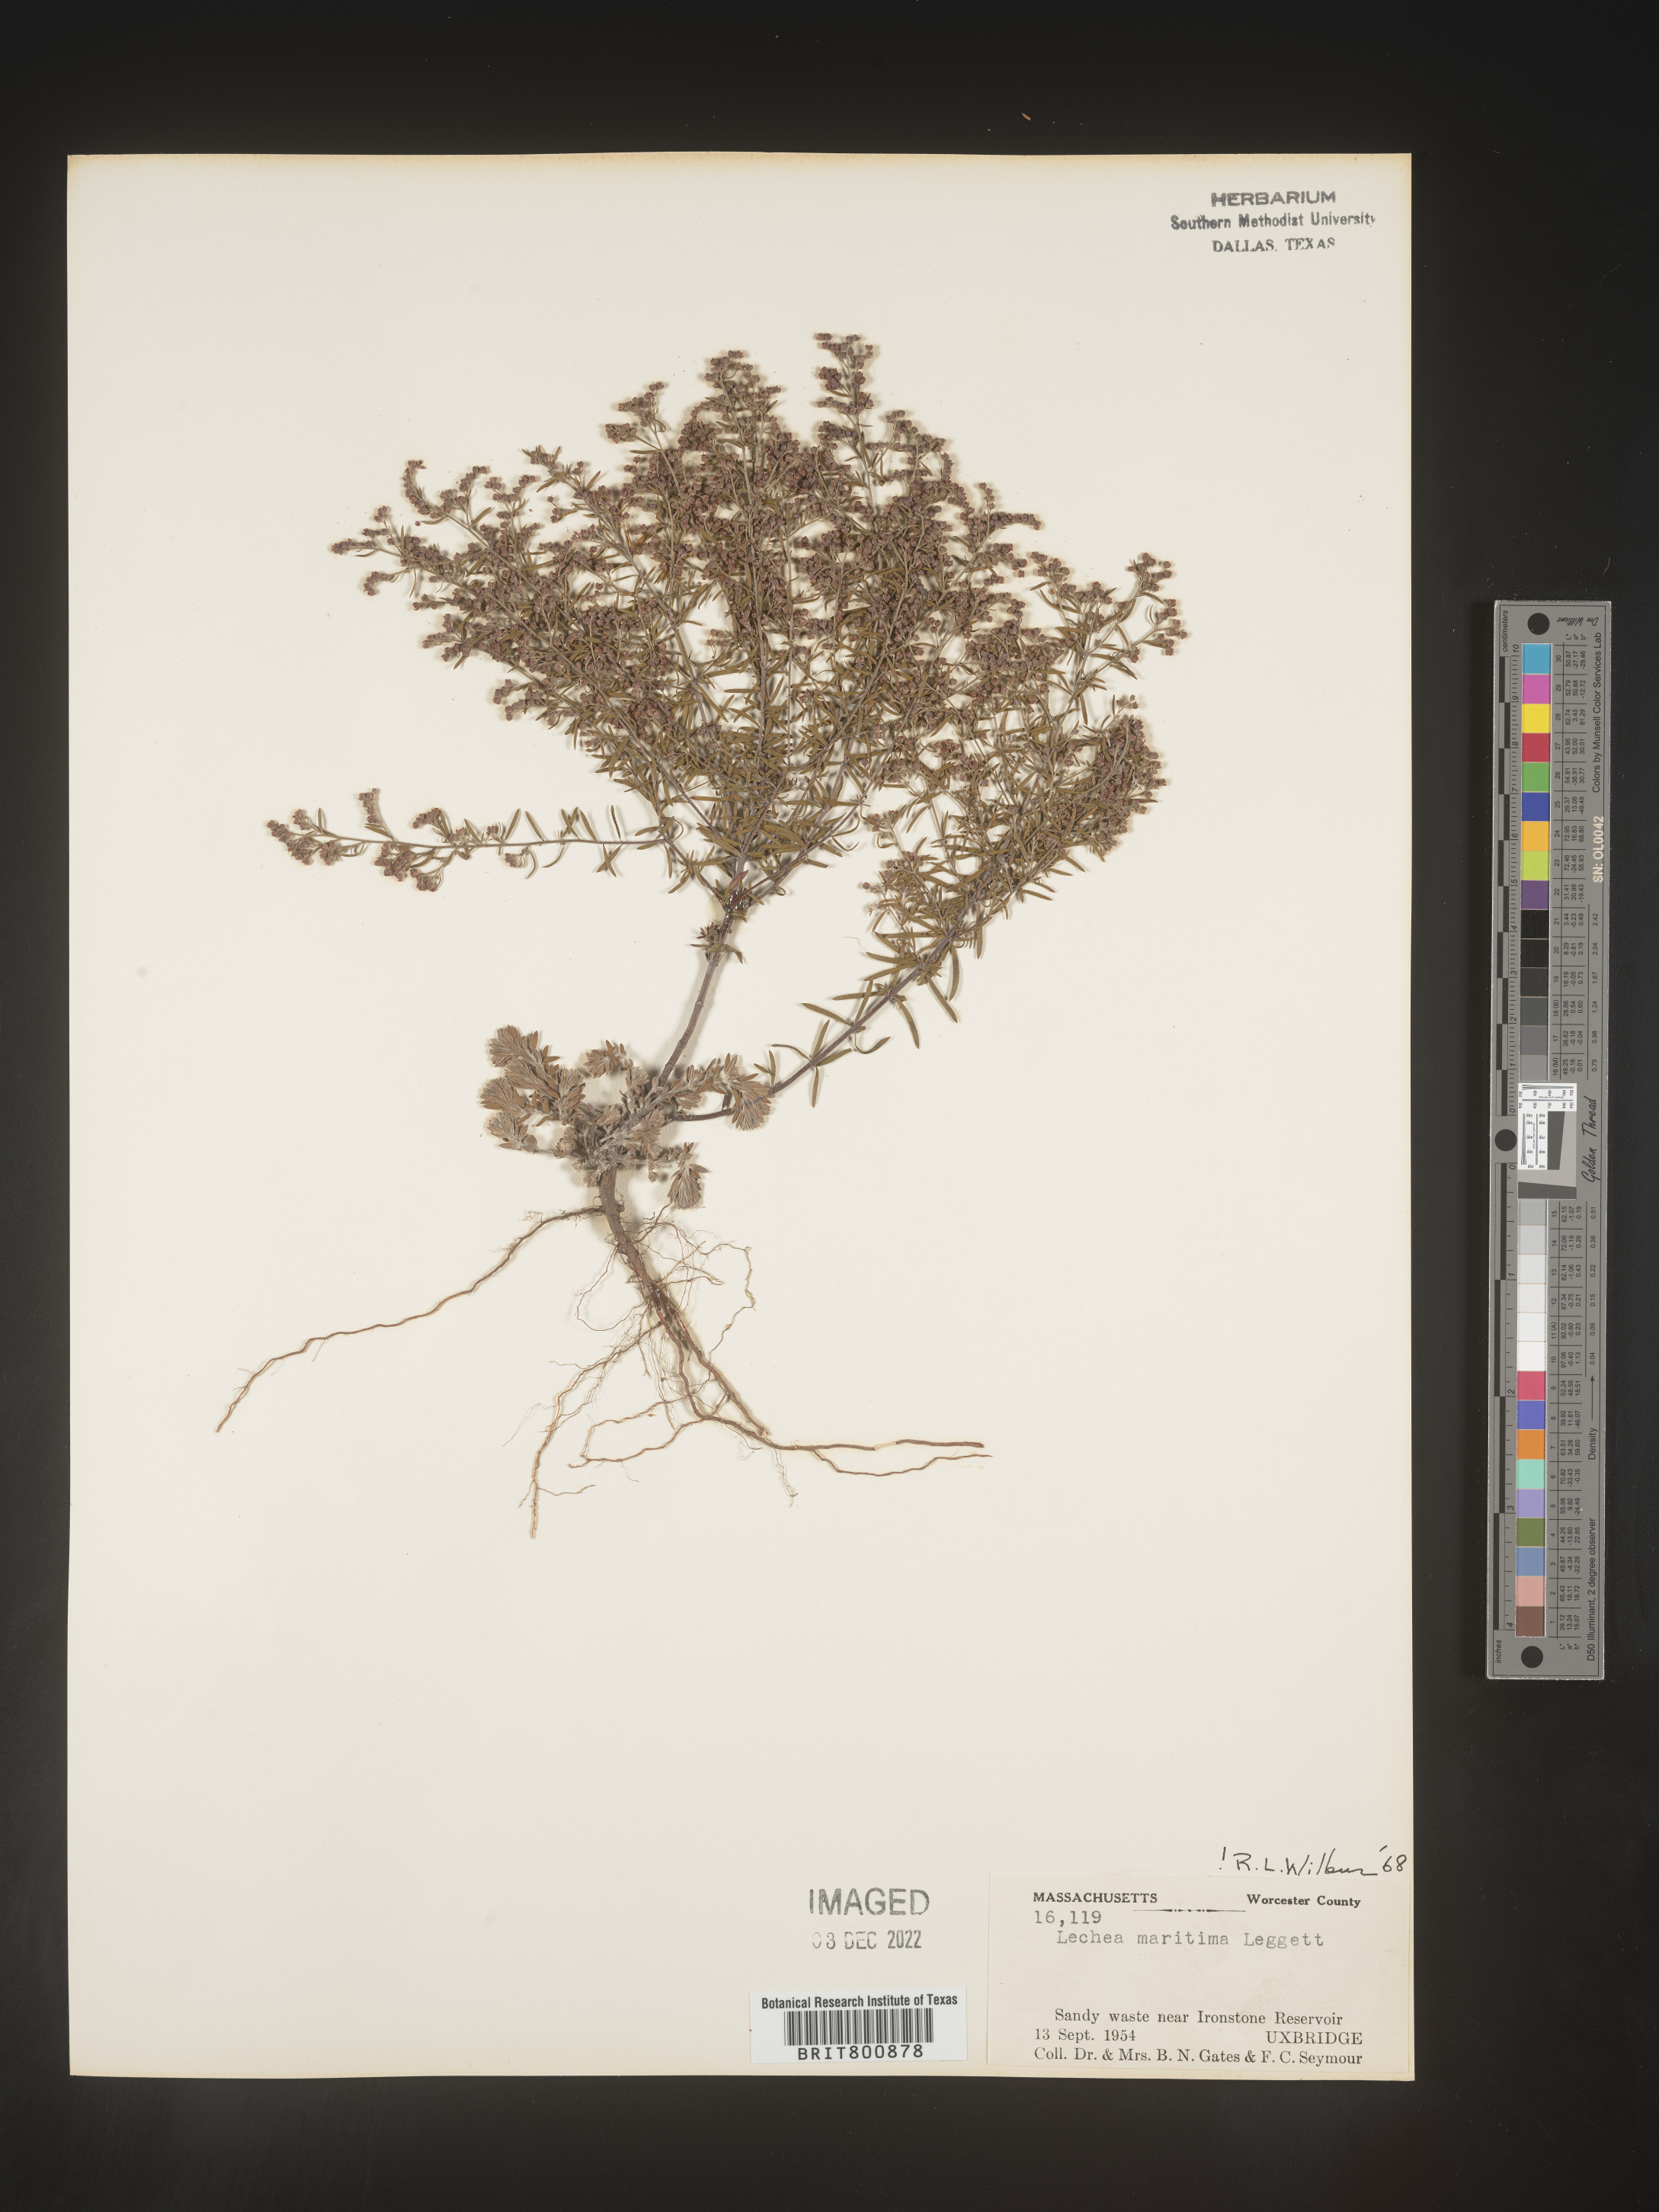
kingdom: Plantae
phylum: Tracheophyta
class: Magnoliopsida
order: Malvales
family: Cistaceae
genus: Lechea
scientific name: Lechea maritima
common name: Beach pinweed
